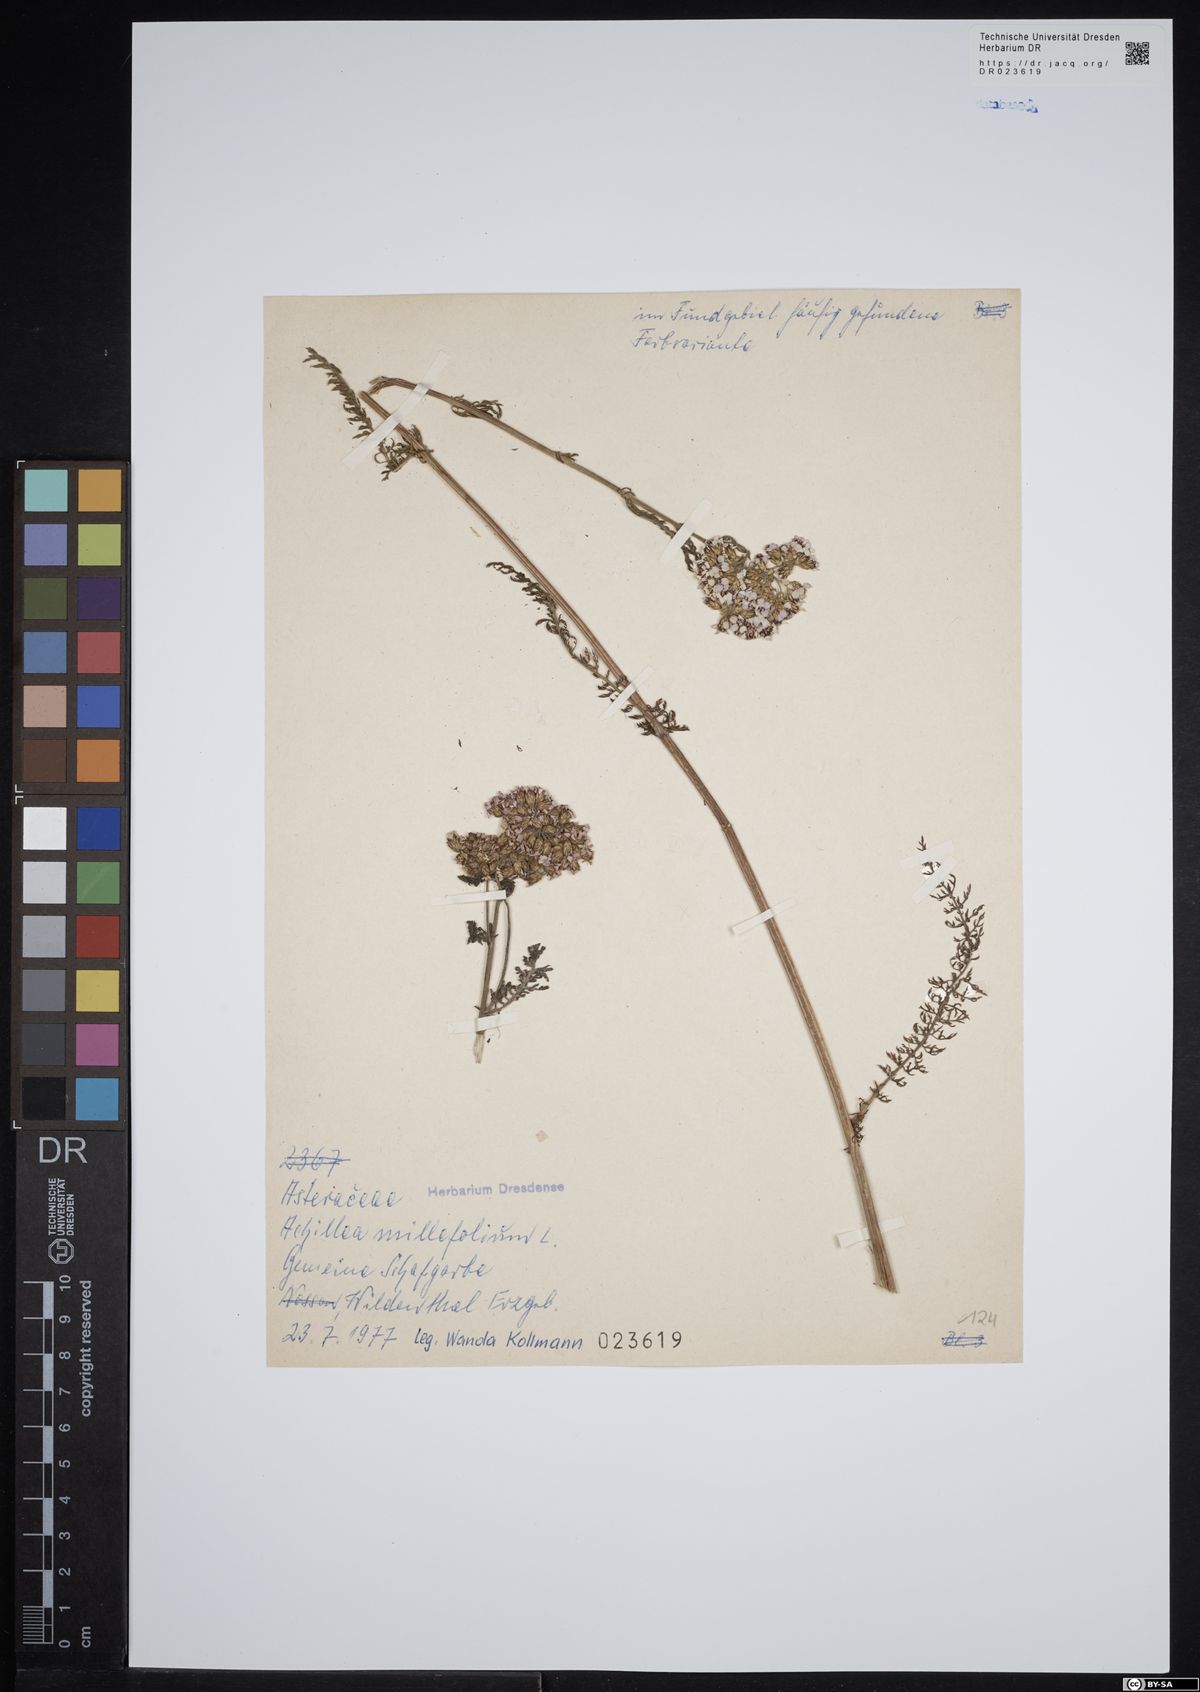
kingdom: Plantae
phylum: Tracheophyta
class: Magnoliopsida
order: Asterales
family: Asteraceae
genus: Achillea
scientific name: Achillea millefolium
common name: Yarrow
